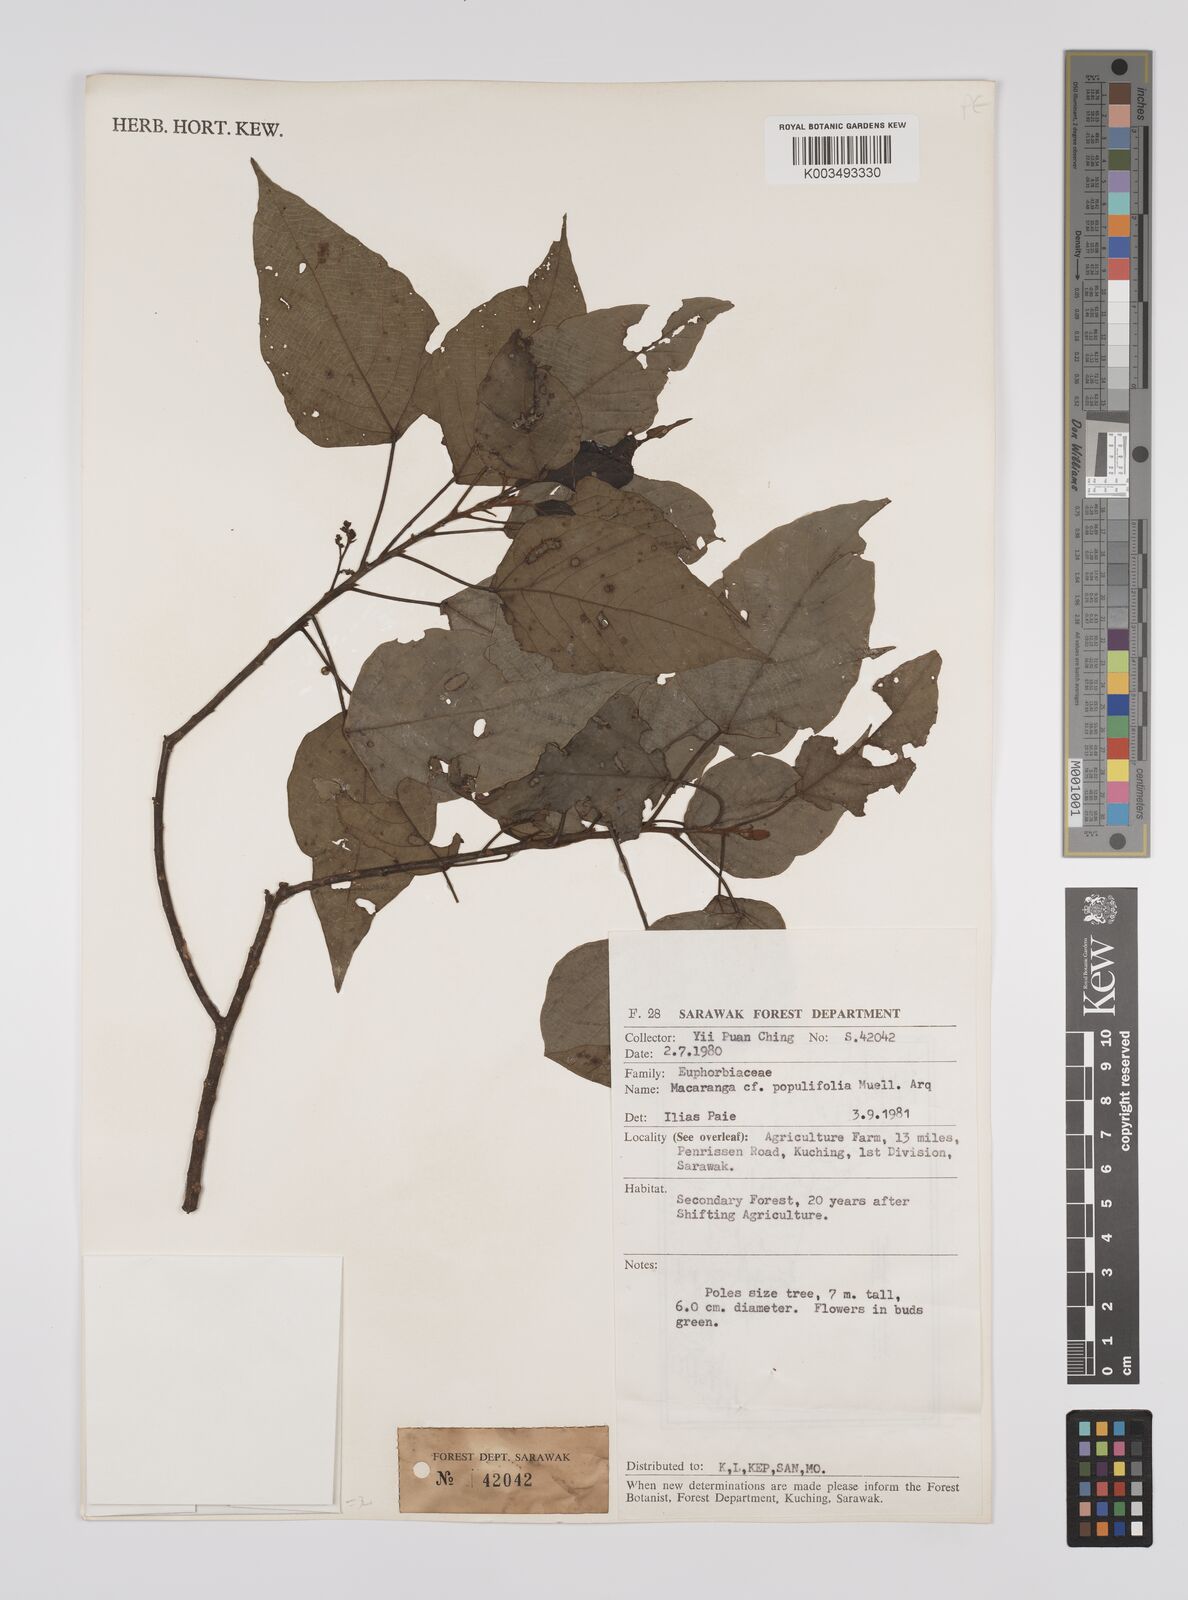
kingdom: Plantae
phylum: Tracheophyta
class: Magnoliopsida
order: Malpighiales
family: Euphorbiaceae
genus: Macaranga
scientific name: Macaranga conifera
